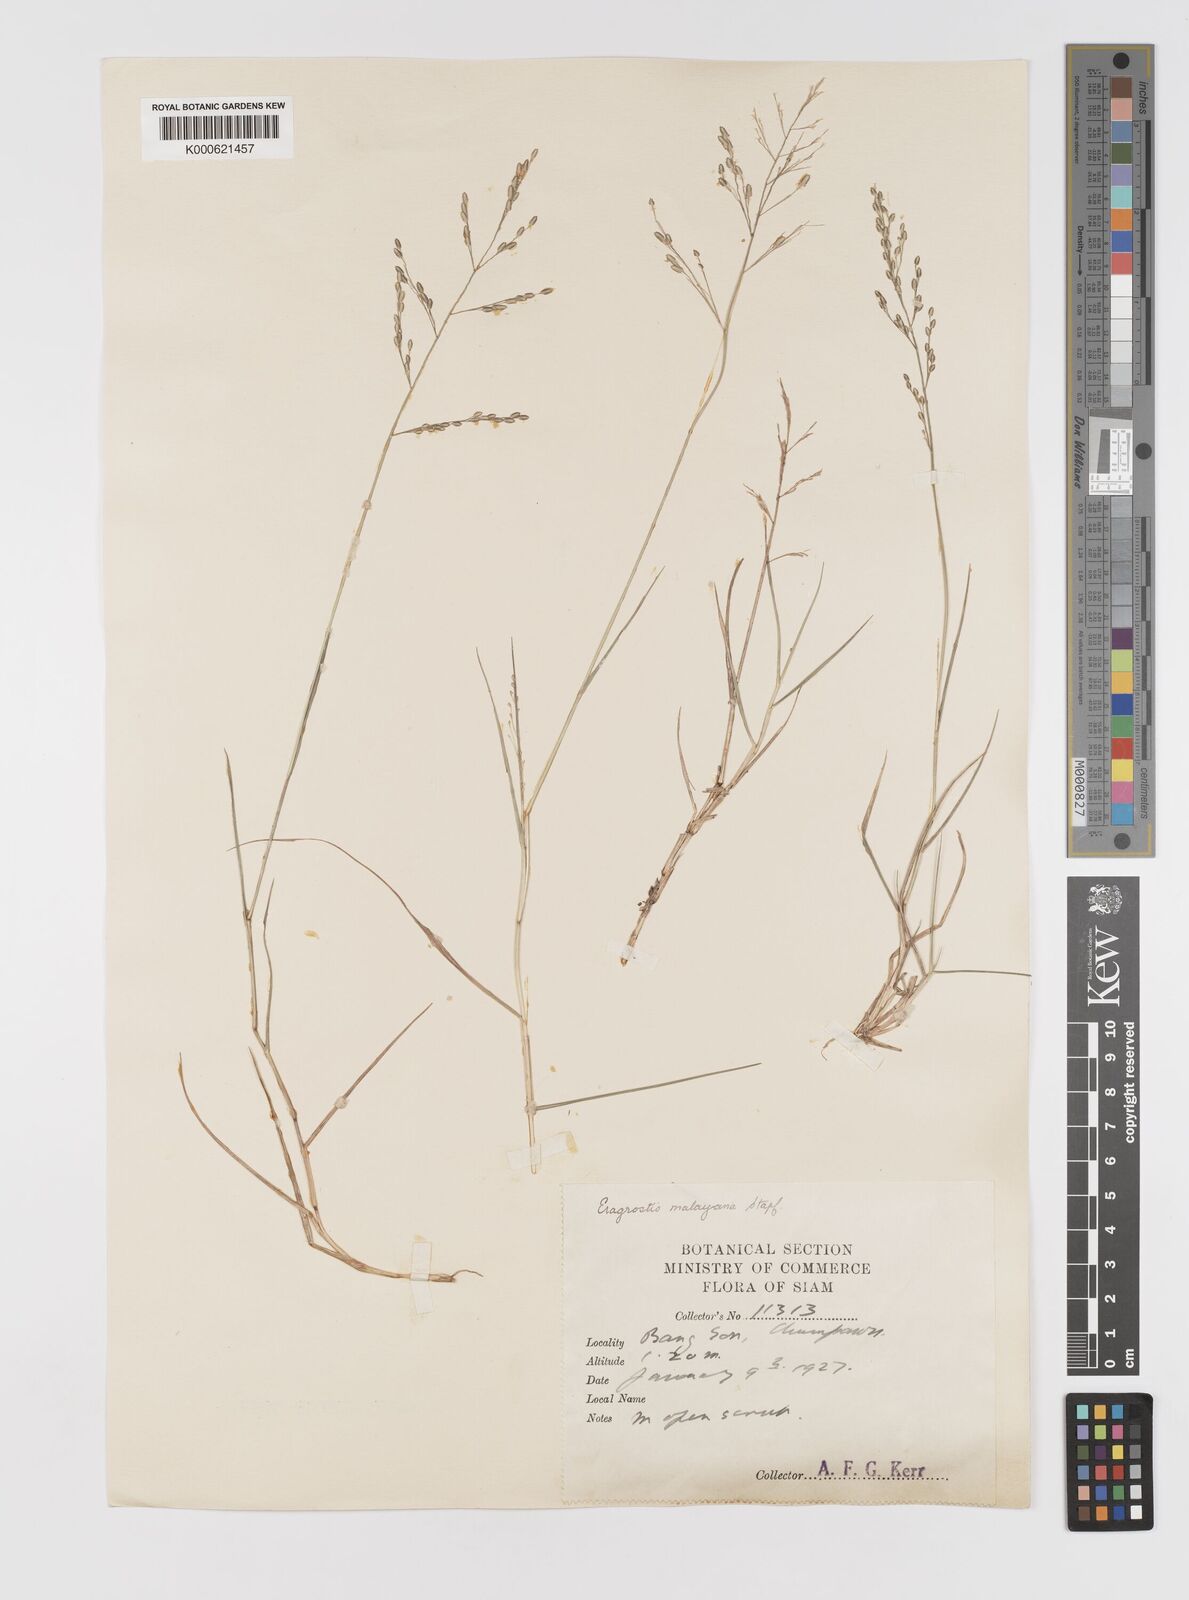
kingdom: Plantae
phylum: Tracheophyta
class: Liliopsida
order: Poales
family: Poaceae
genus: Eragrostis
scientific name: Eragrostis montana
